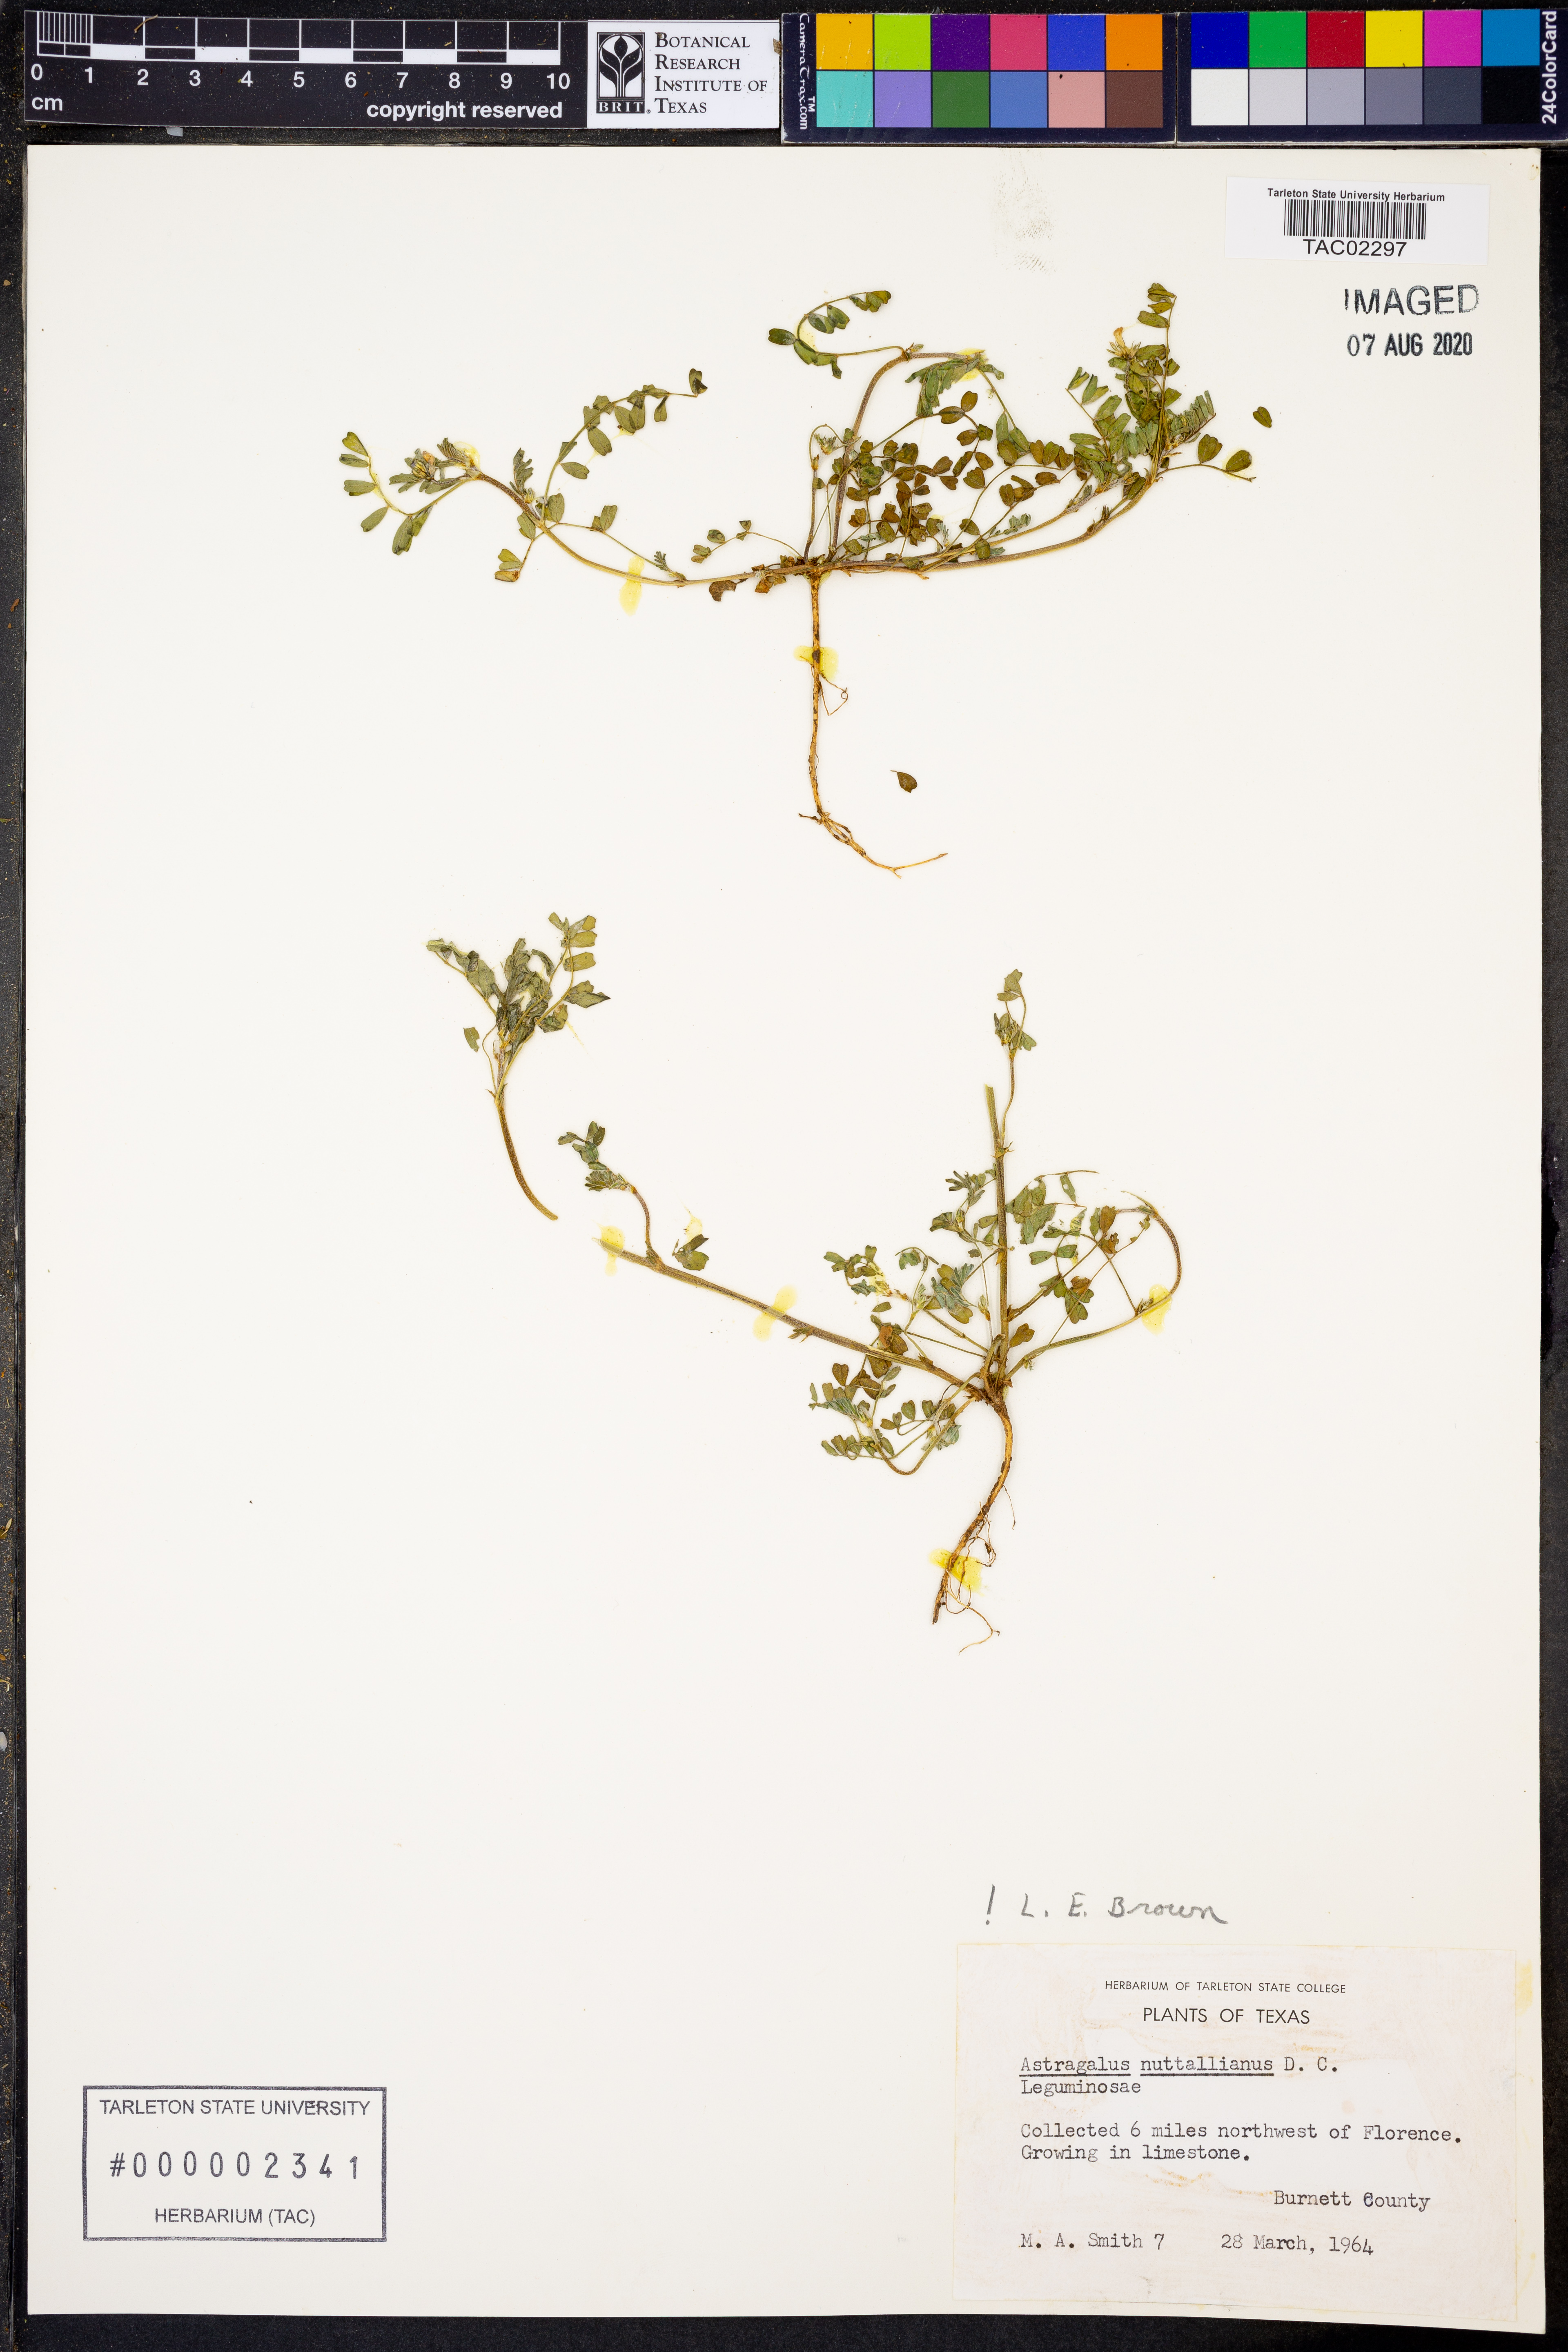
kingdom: Plantae
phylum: Tracheophyta
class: Magnoliopsida
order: Fabales
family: Fabaceae
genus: Astragalus
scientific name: Astragalus nuttallianus
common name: Smallflowered milkvetch
